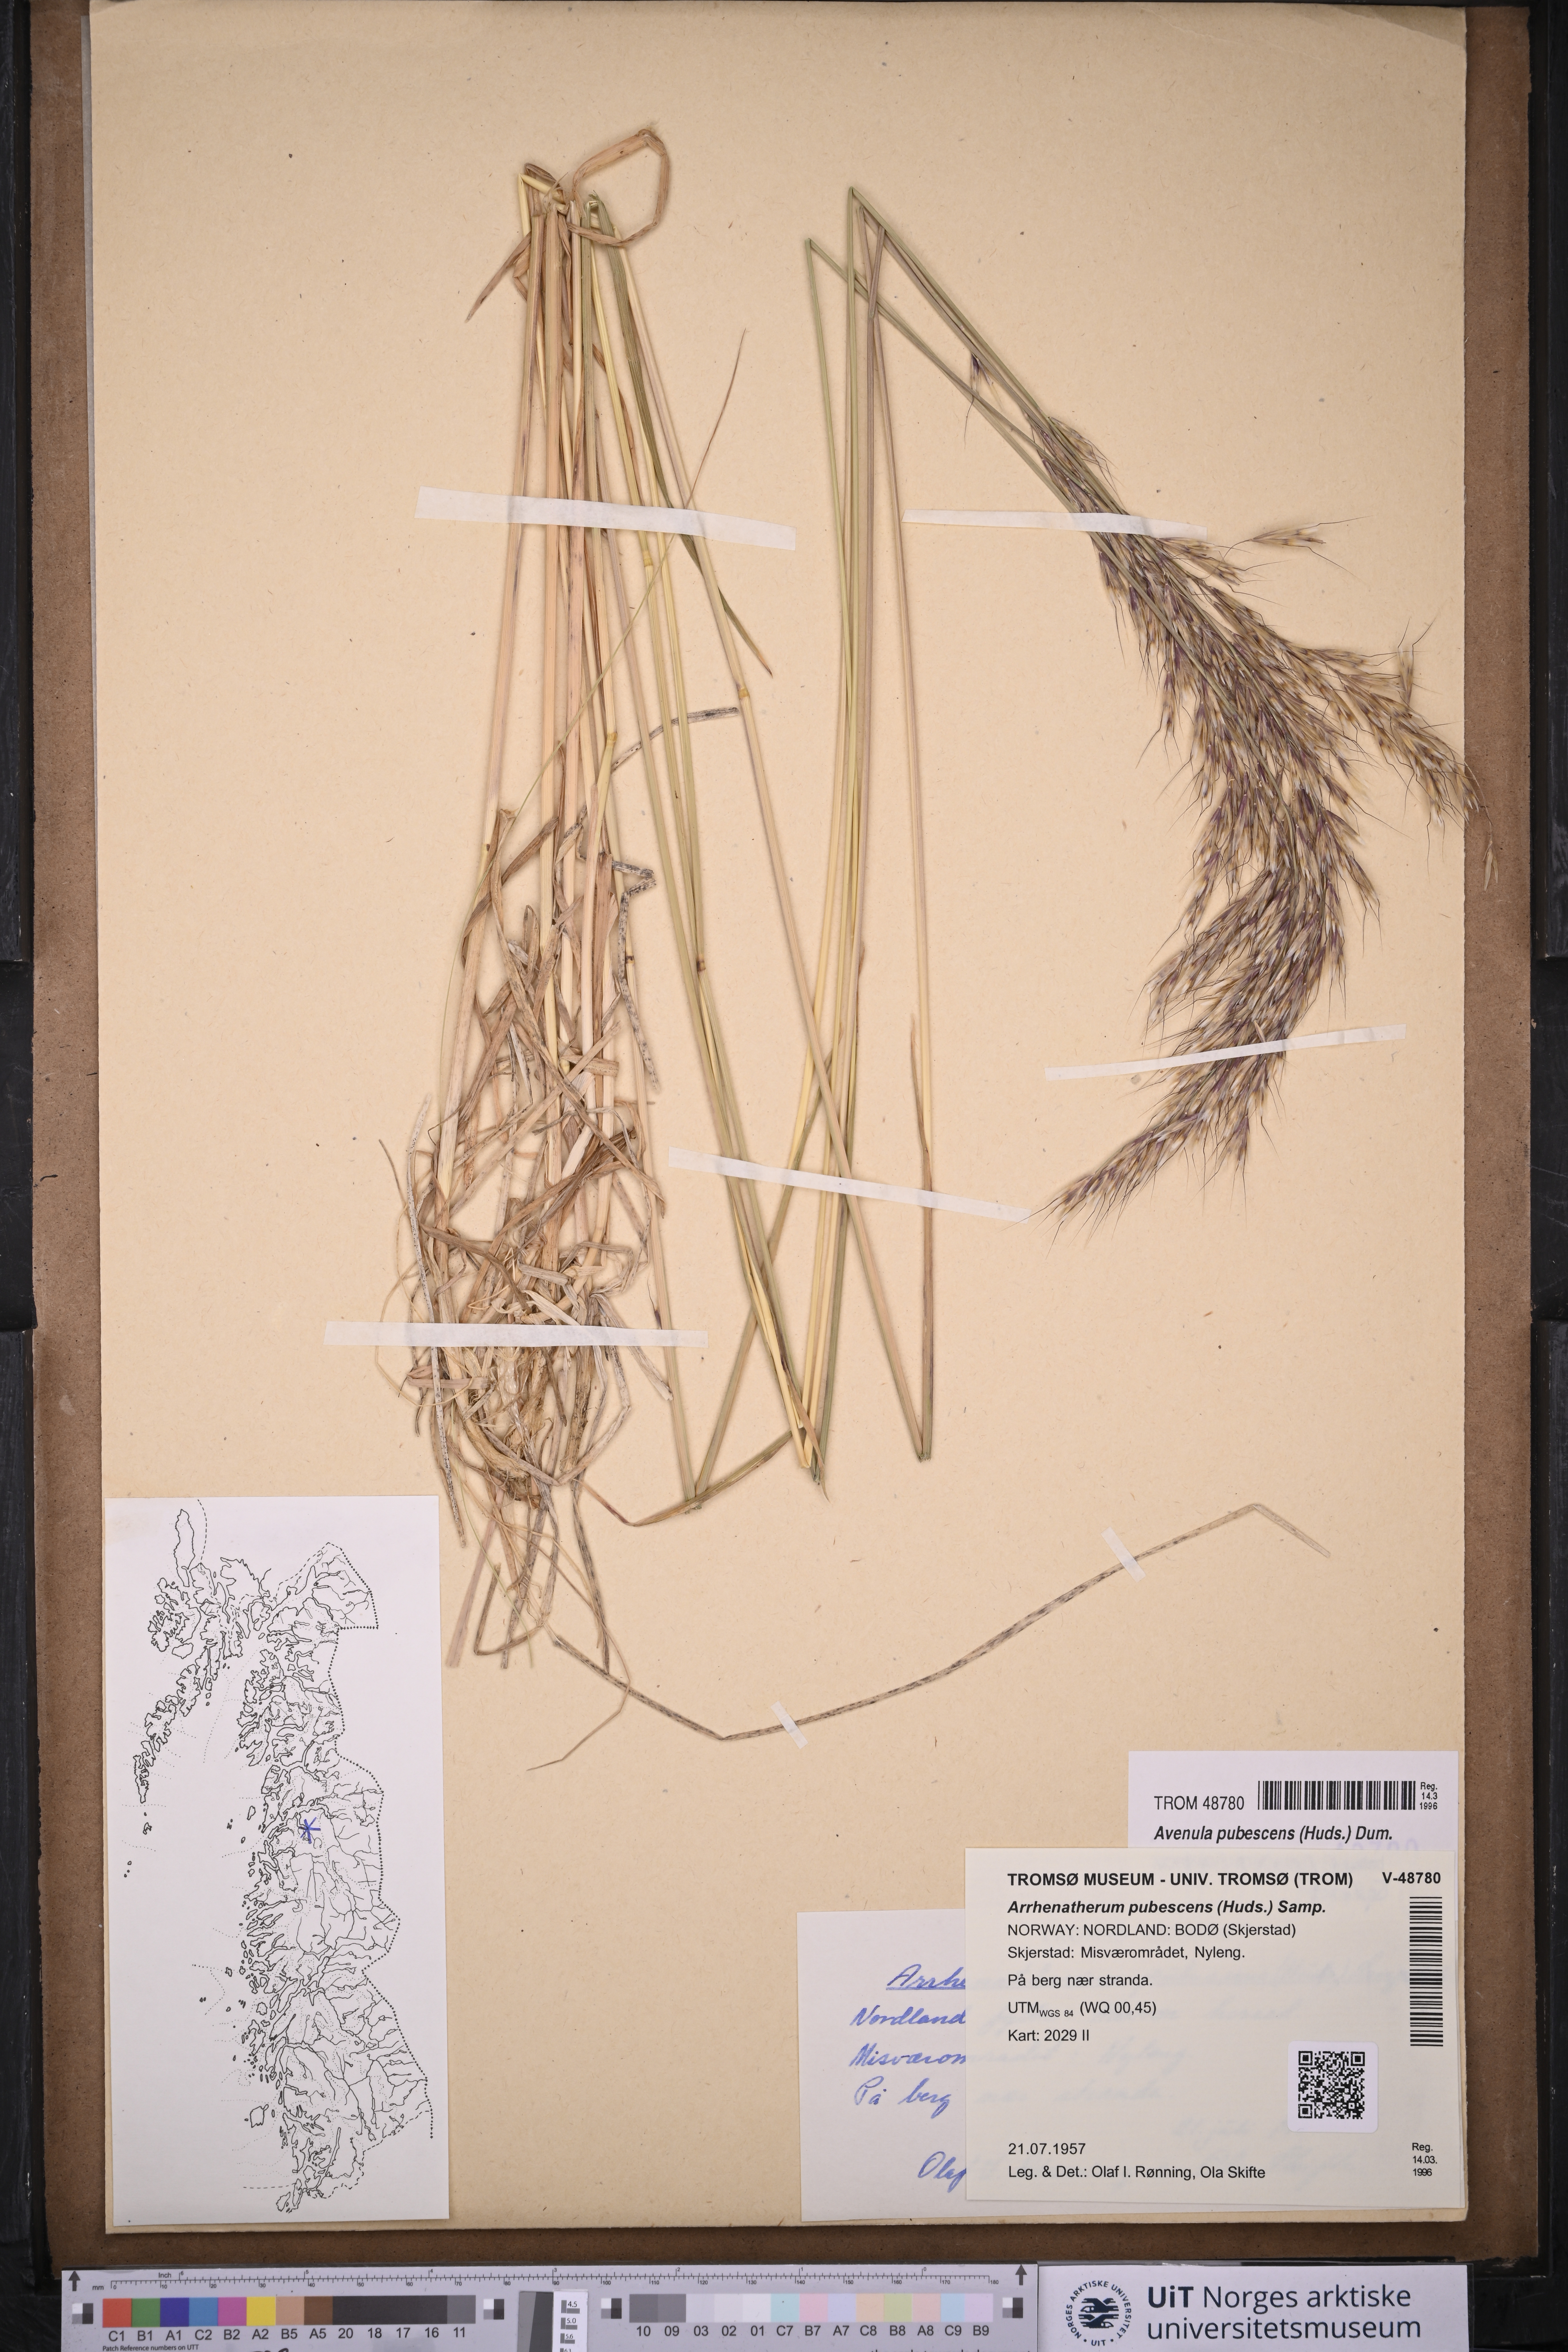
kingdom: Plantae
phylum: Tracheophyta
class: Liliopsida
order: Poales
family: Poaceae
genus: Avenula
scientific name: Avenula pubescens
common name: Downy alpine oatgrass
